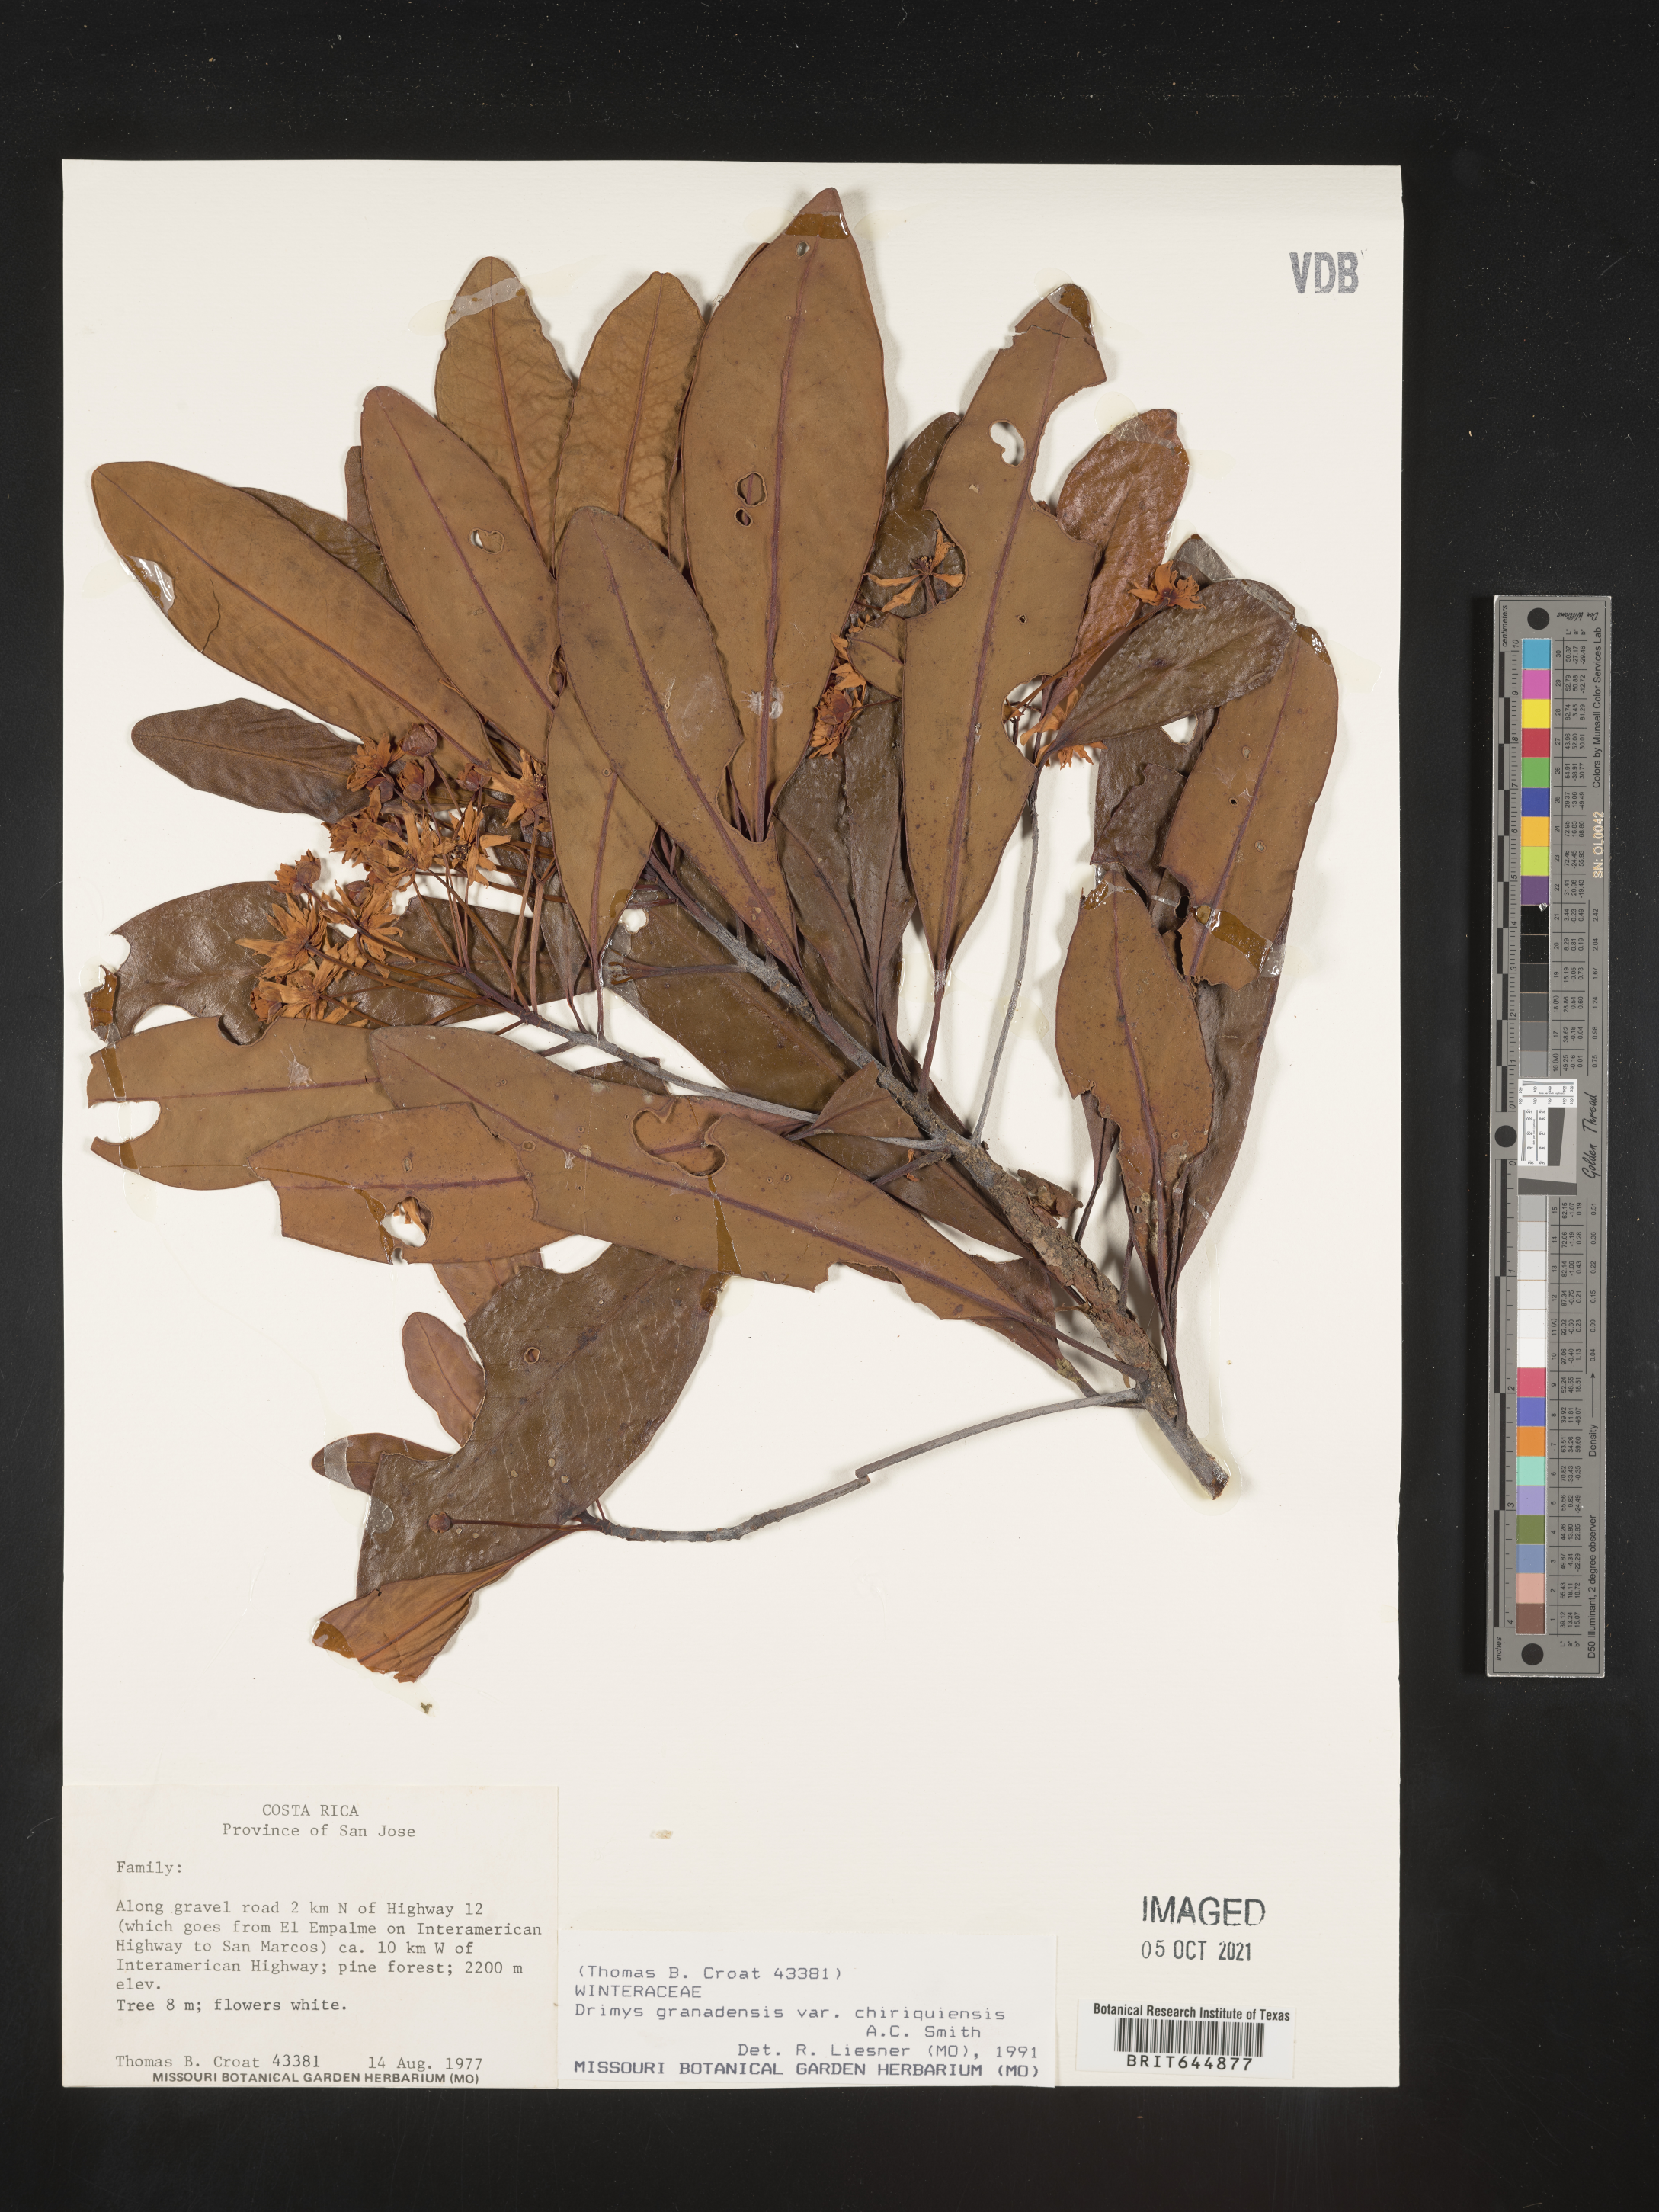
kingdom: Plantae
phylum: Tracheophyta
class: Magnoliopsida
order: Canellales
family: Winteraceae
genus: Drimys
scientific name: Drimys
